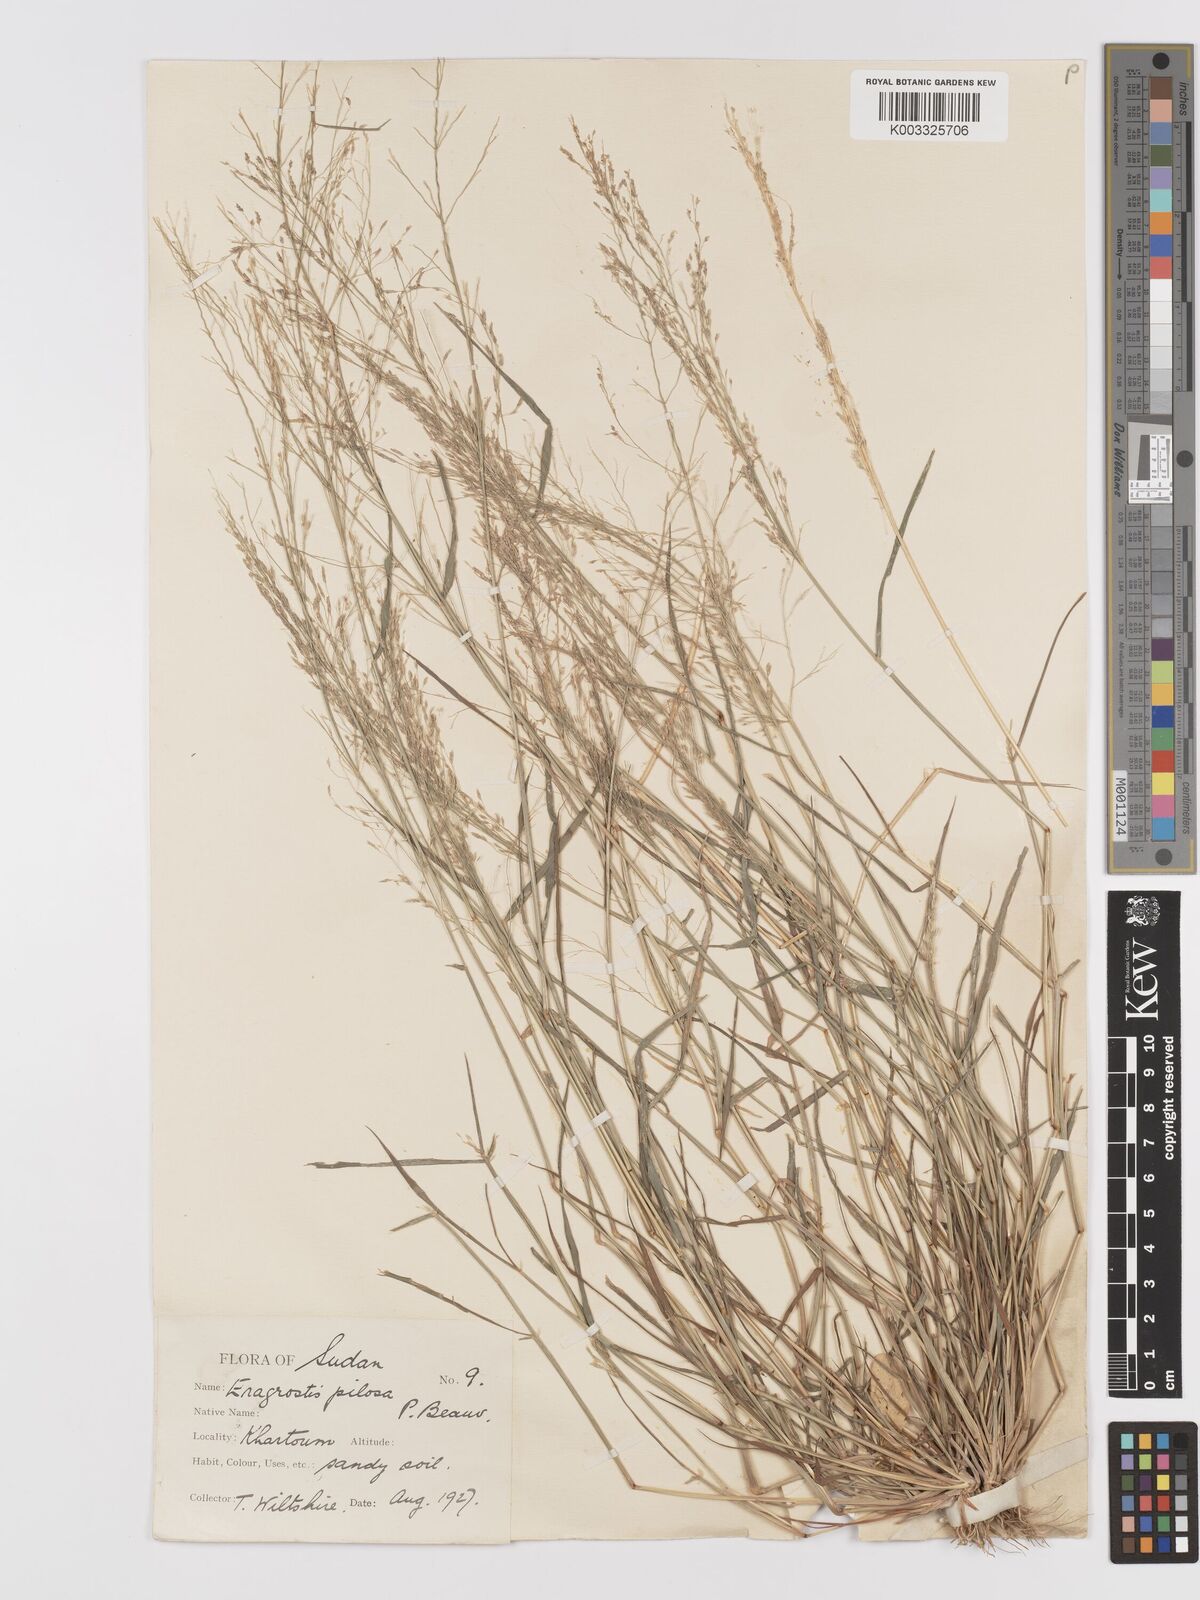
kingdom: Plantae
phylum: Tracheophyta
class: Liliopsida
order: Poales
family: Poaceae
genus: Eragrostis
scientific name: Eragrostis pilosa
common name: Indian lovegrass
